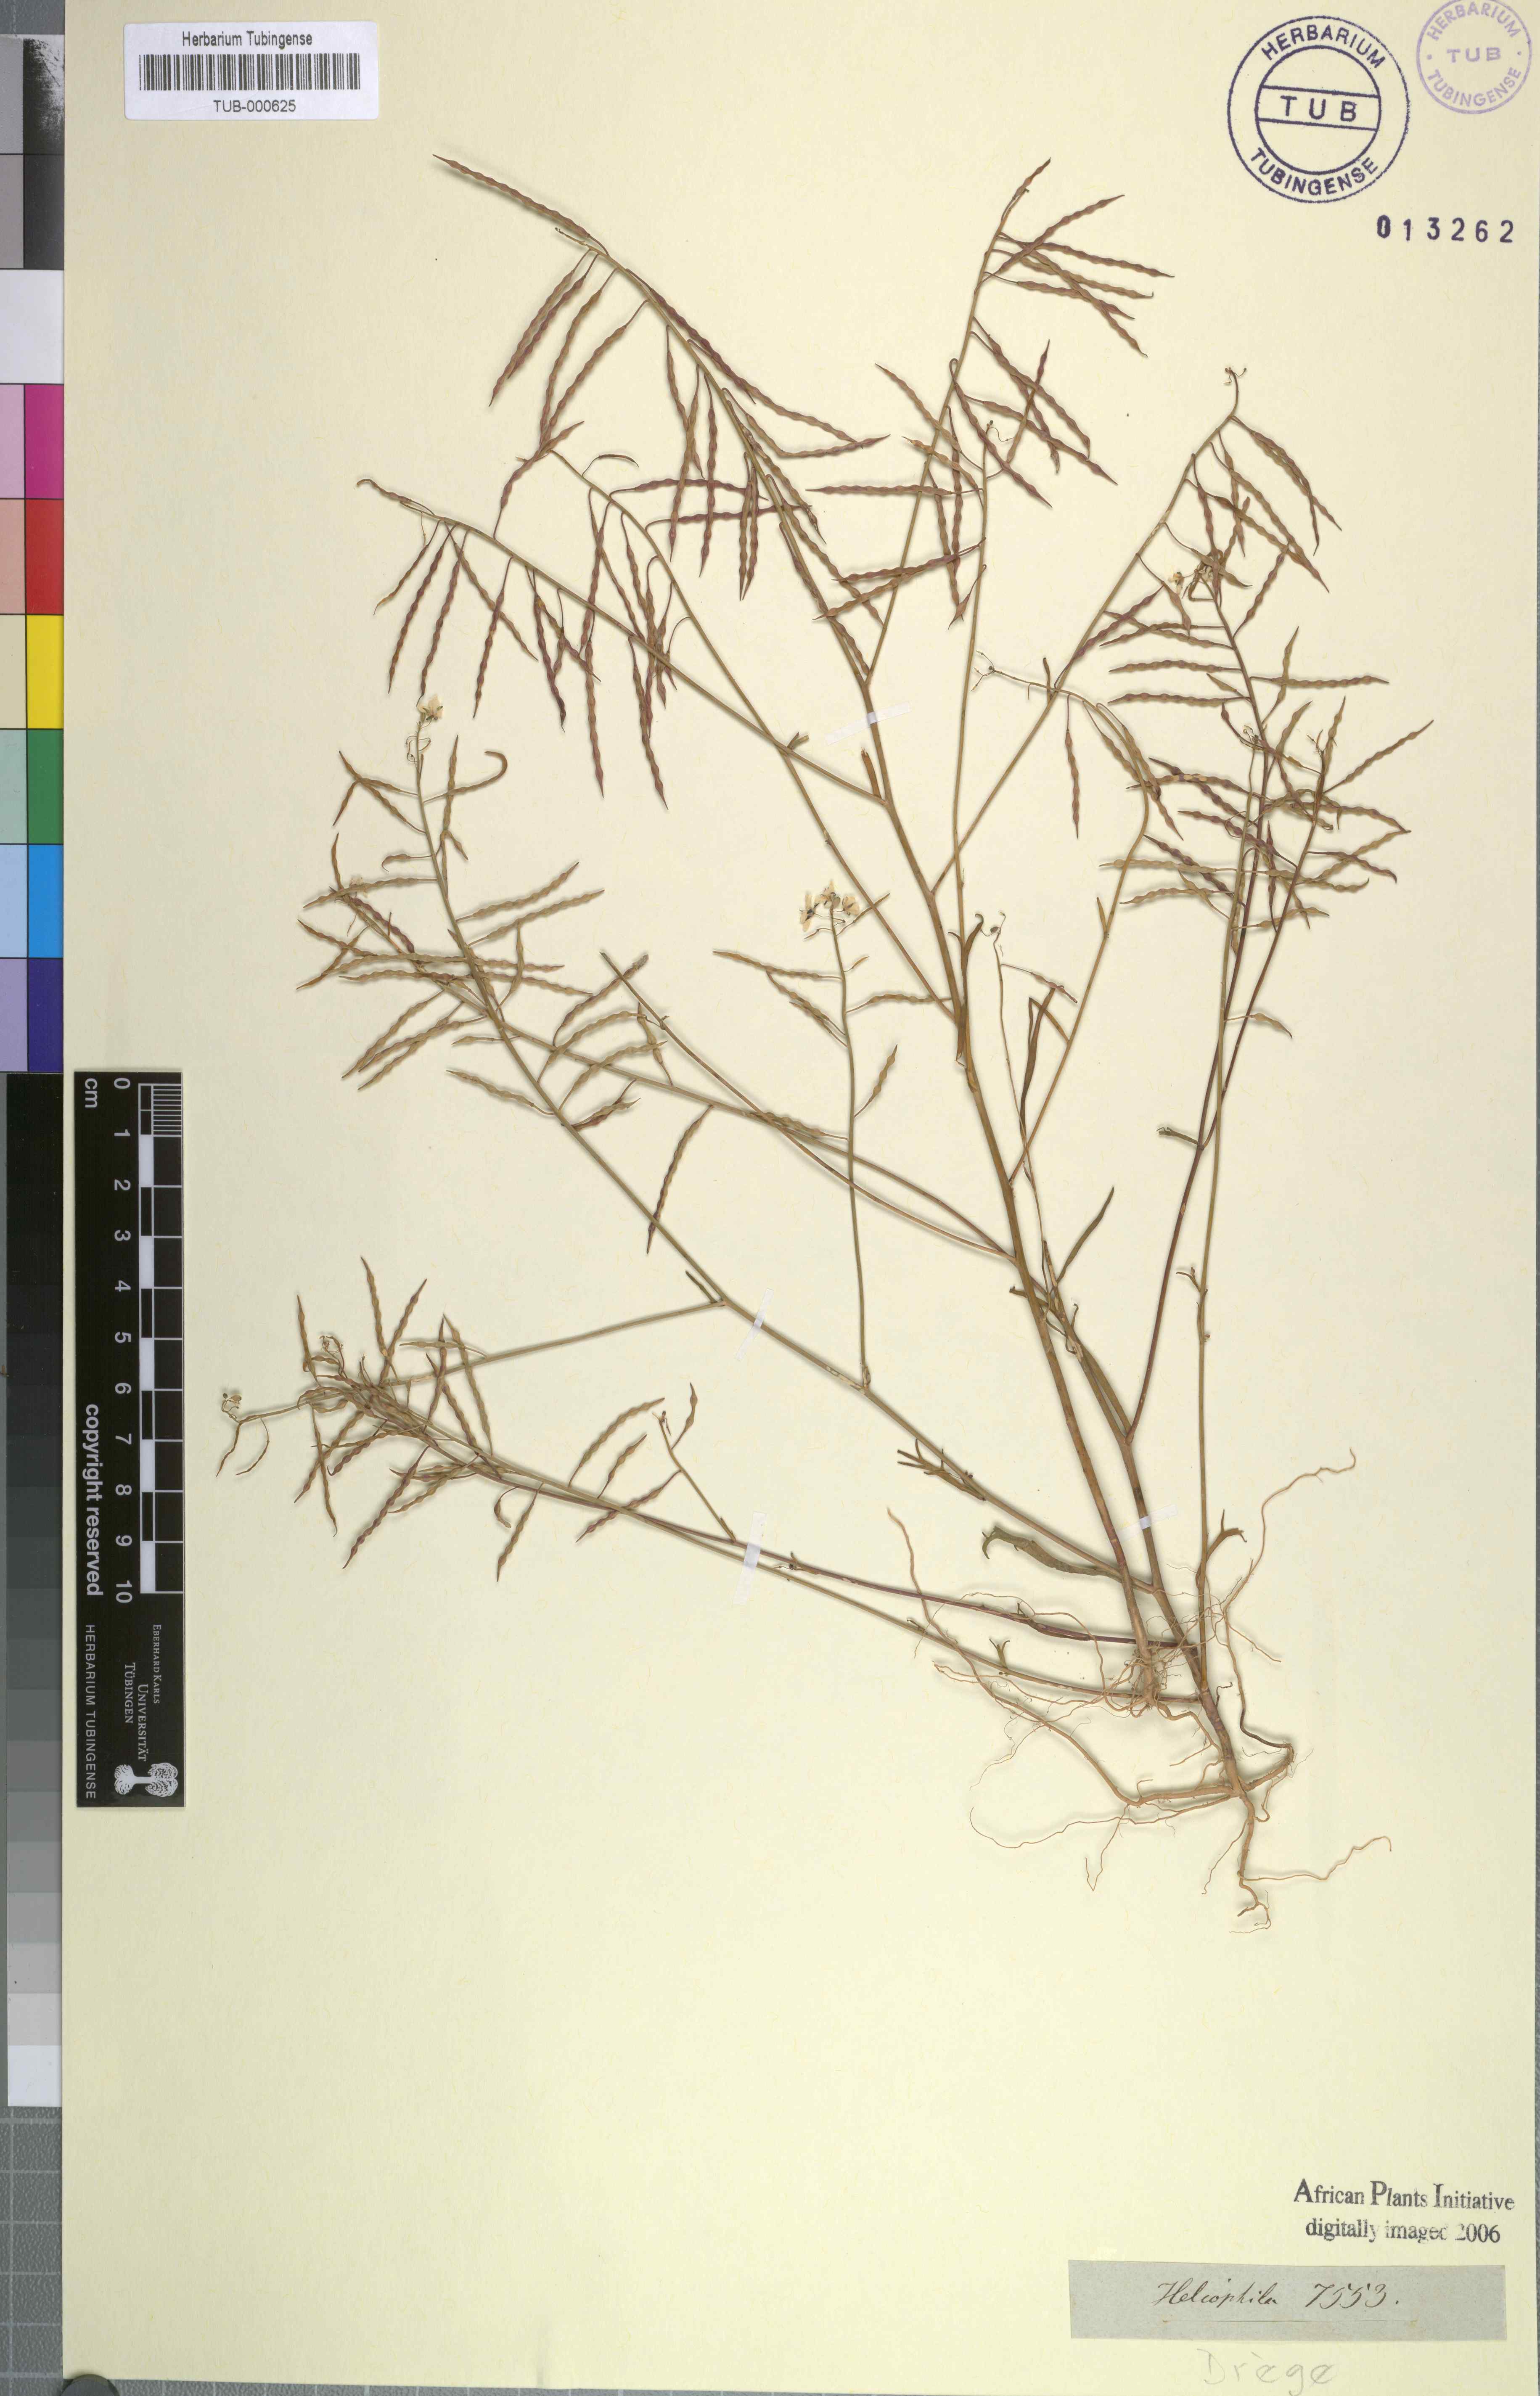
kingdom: Plantae
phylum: Tracheophyta
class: Magnoliopsida
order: Brassicales
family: Brassicaceae
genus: Heliophila
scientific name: Heliophila
